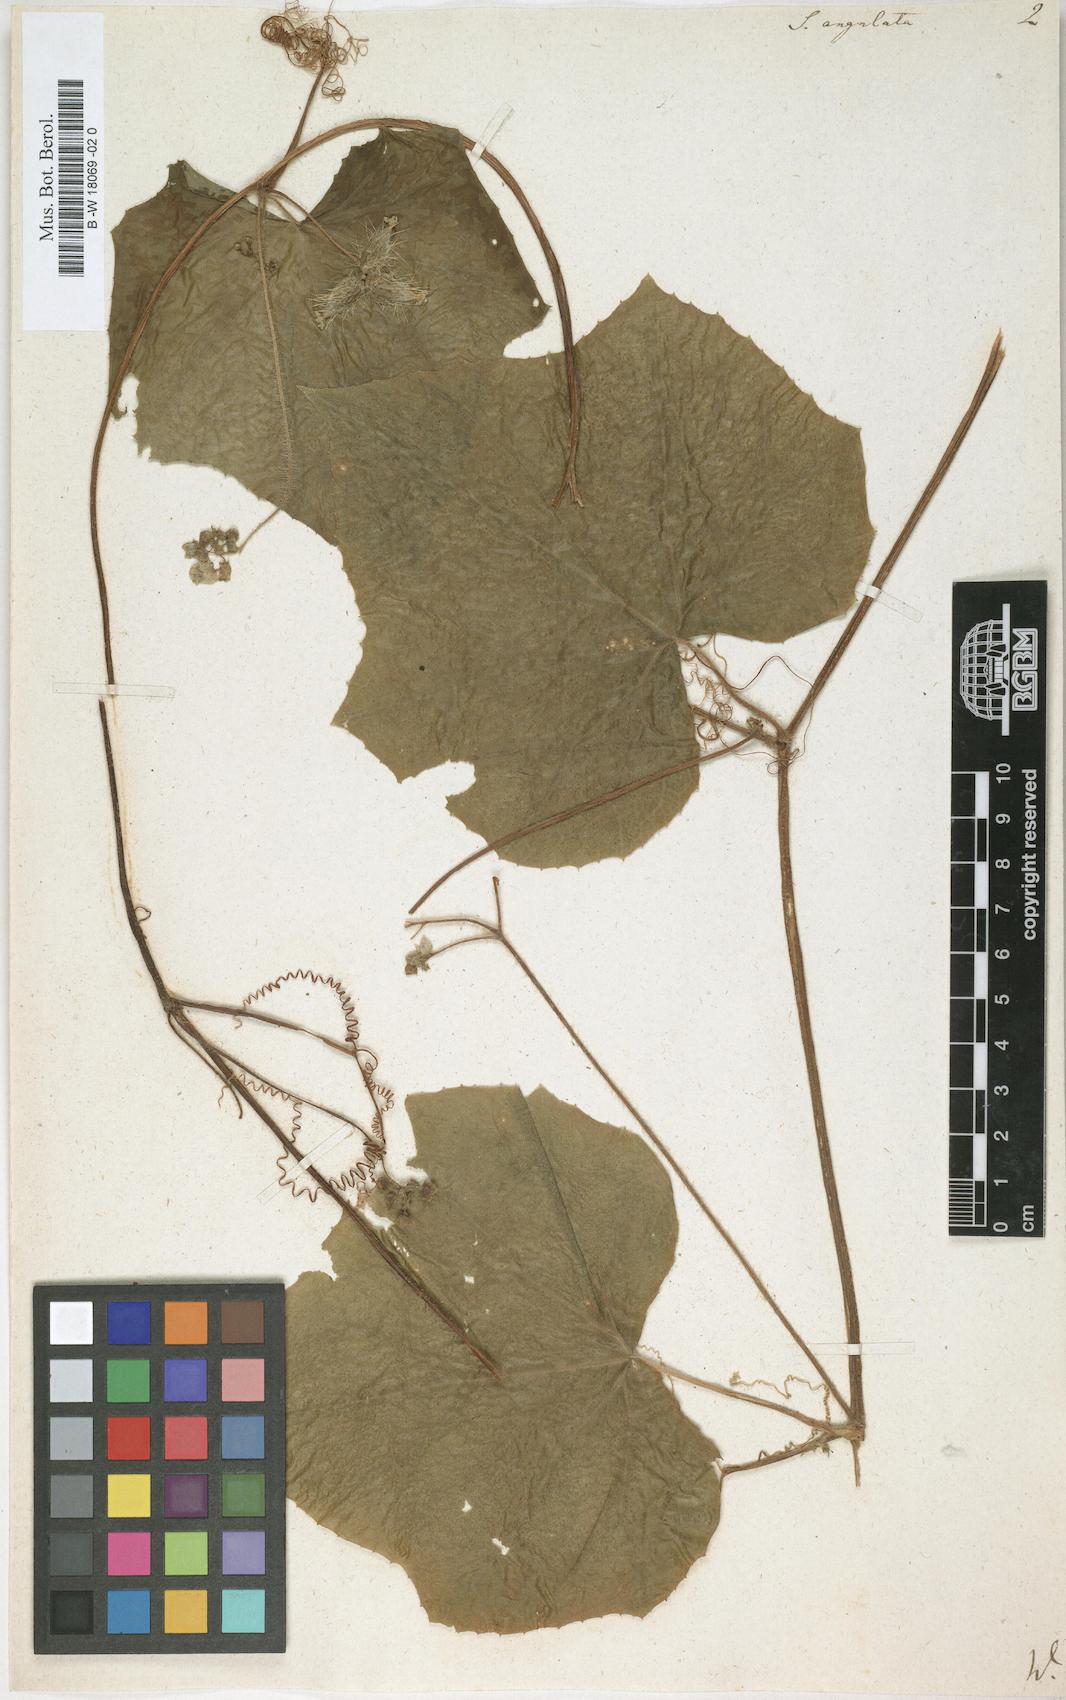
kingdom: Plantae
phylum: Tracheophyta
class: Magnoliopsida
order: Cucurbitales
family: Cucurbitaceae
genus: Sicyos
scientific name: Sicyos angulatus
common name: Angled burr cucumber
